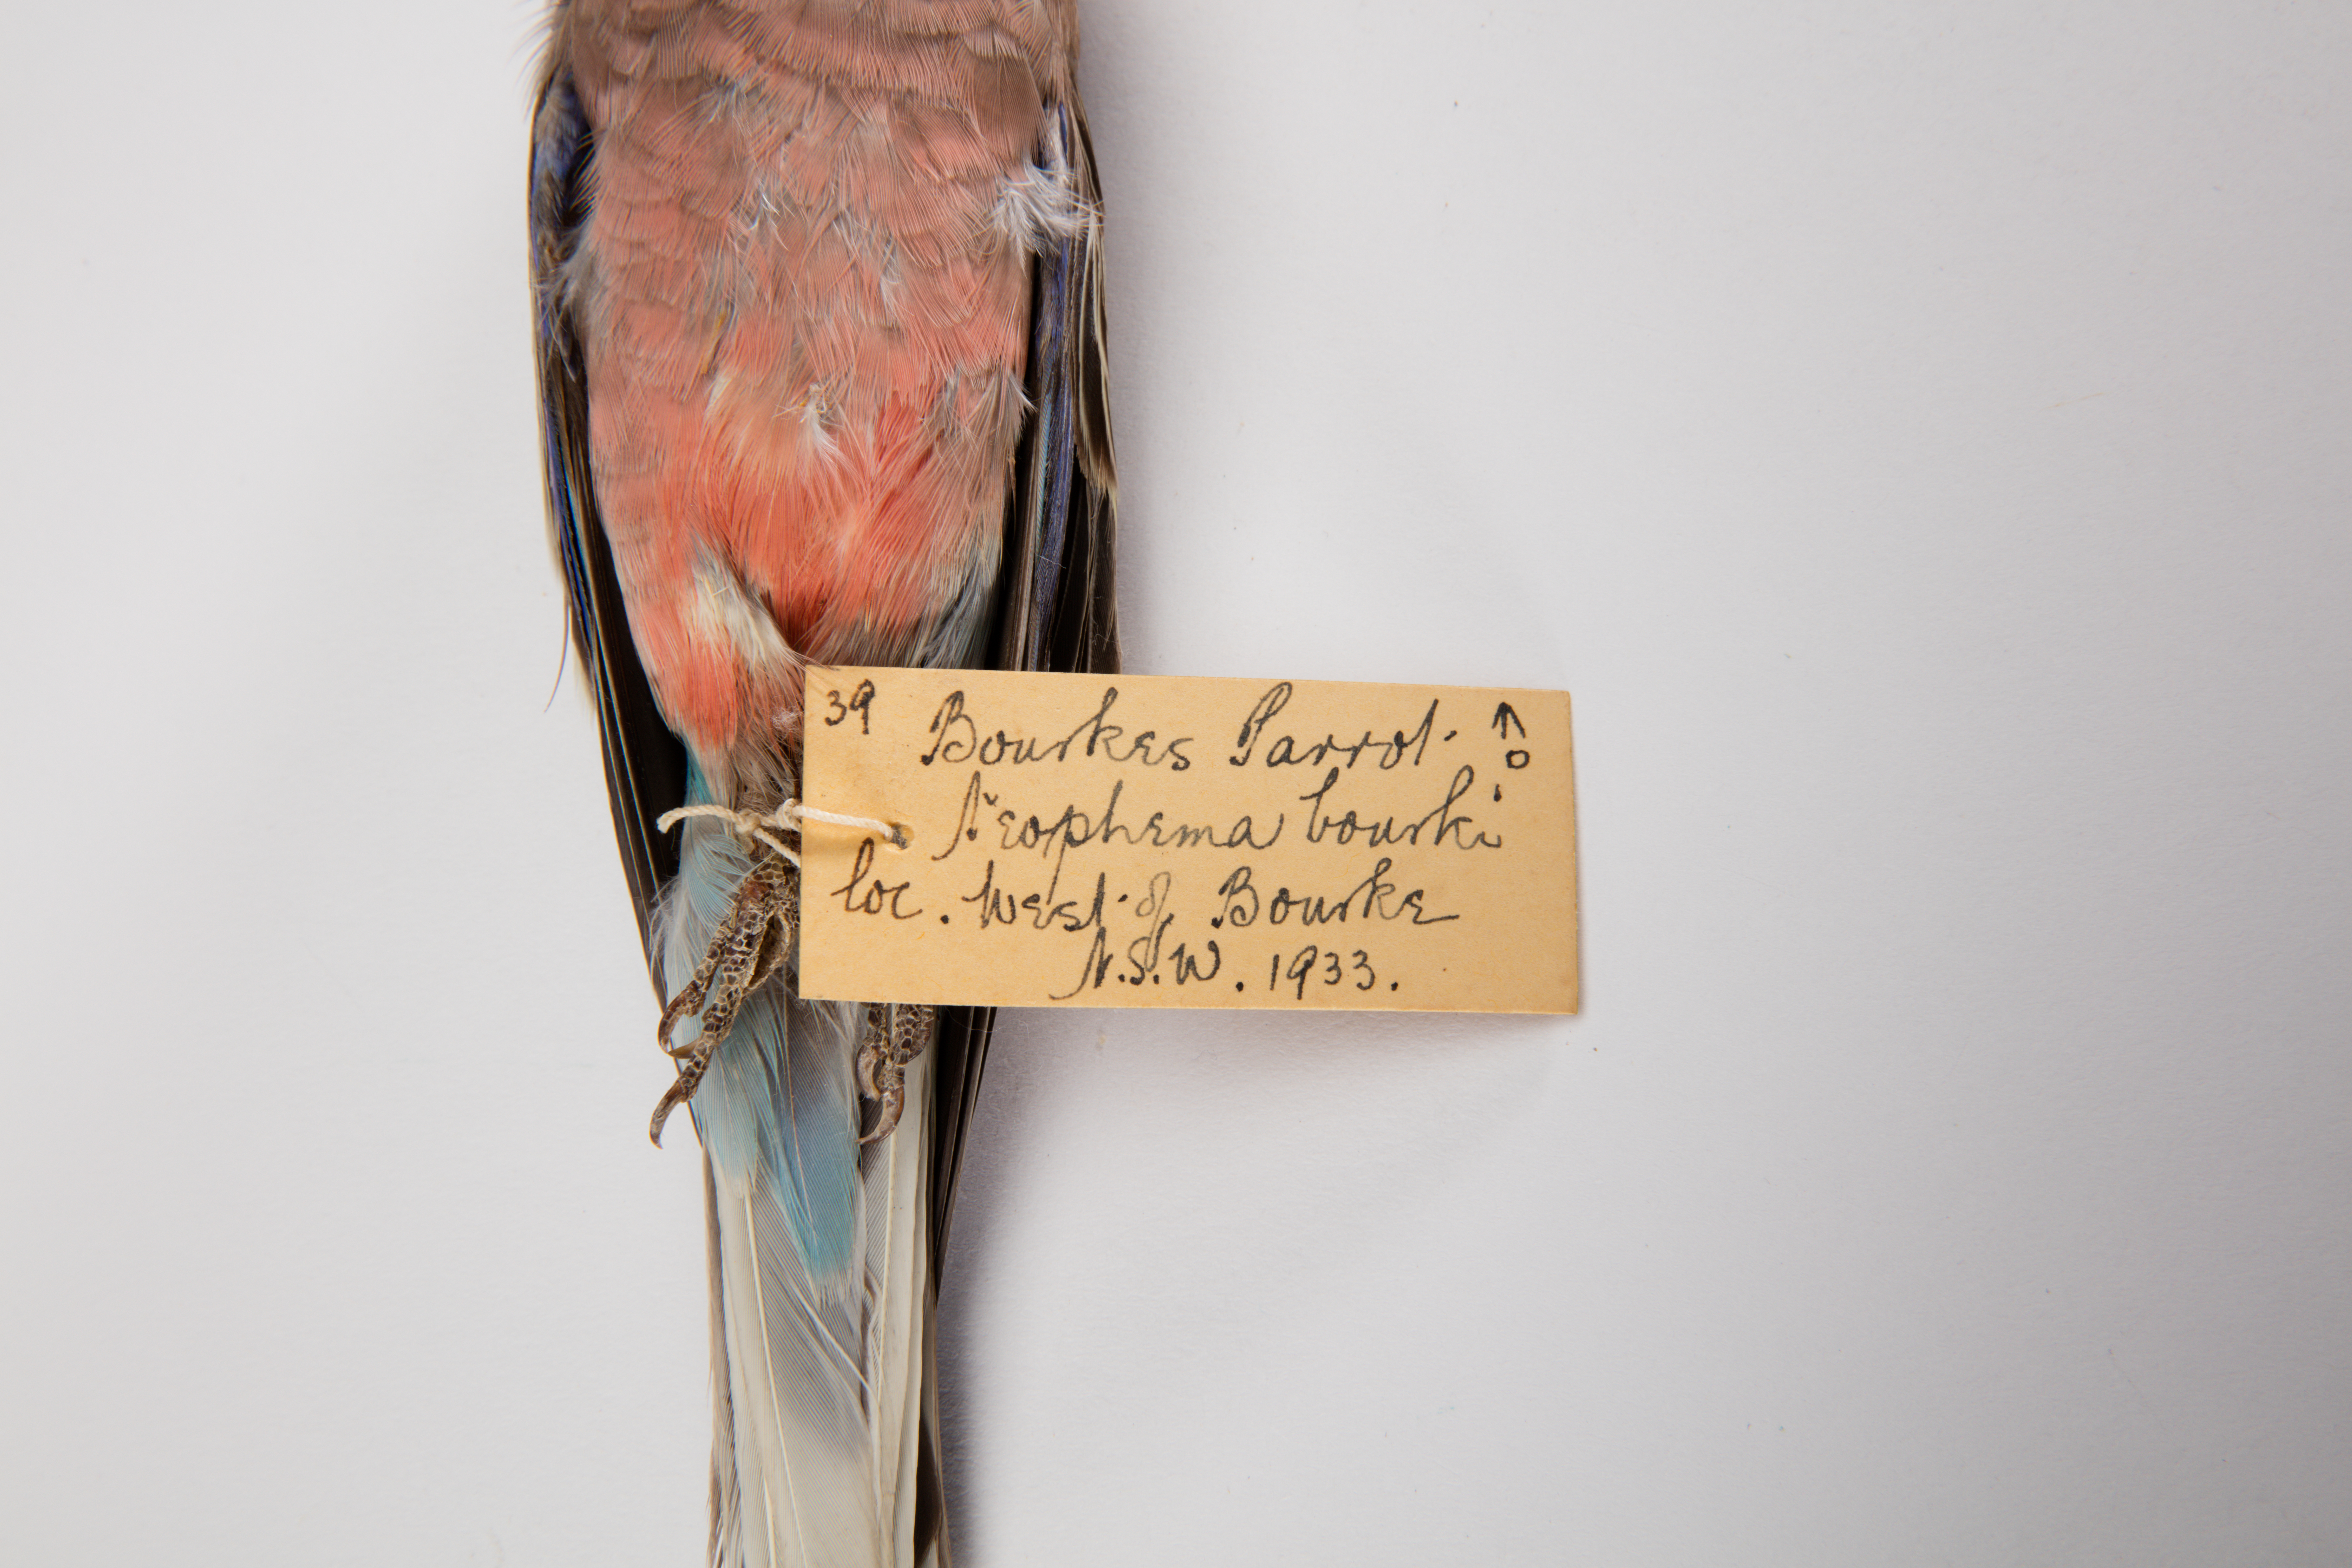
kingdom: Animalia
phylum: Chordata
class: Aves
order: Psittaciformes
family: Psittacidae
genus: Neopsephotus
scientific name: Neopsephotus bourkii
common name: Bourke's parrot
